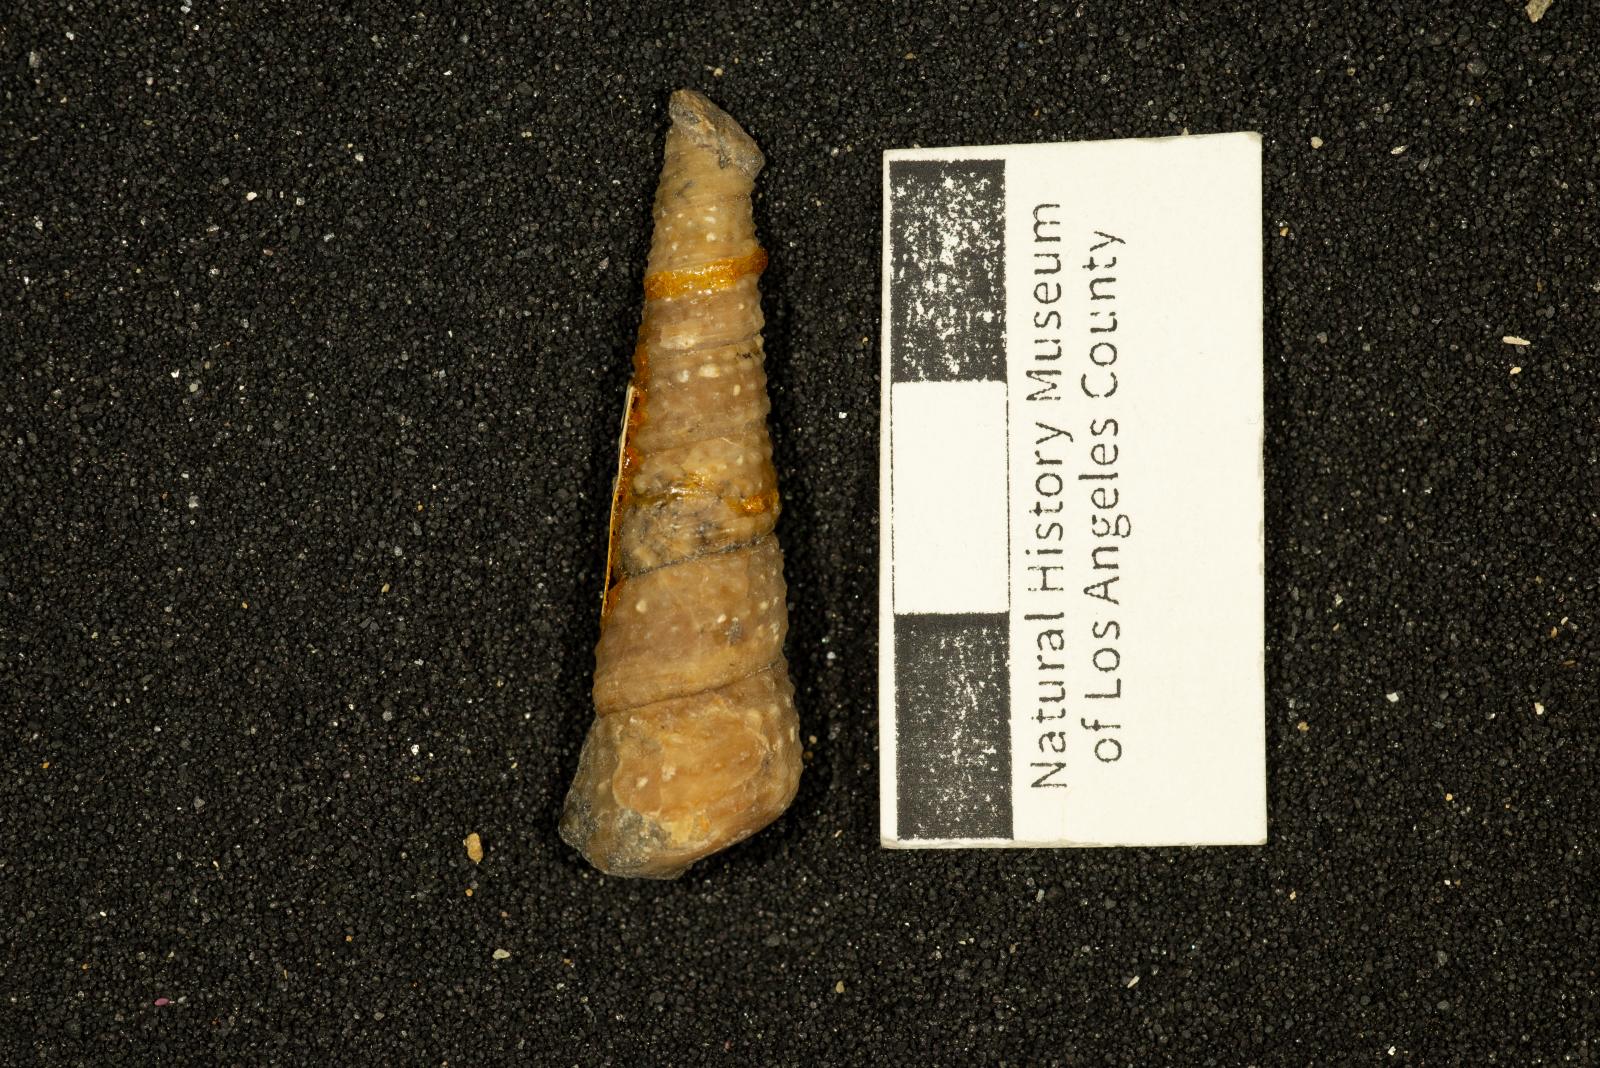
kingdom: Animalia
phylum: Mollusca
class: Gastropoda
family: Turritellidae
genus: Turritella
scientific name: Turritella hearni
